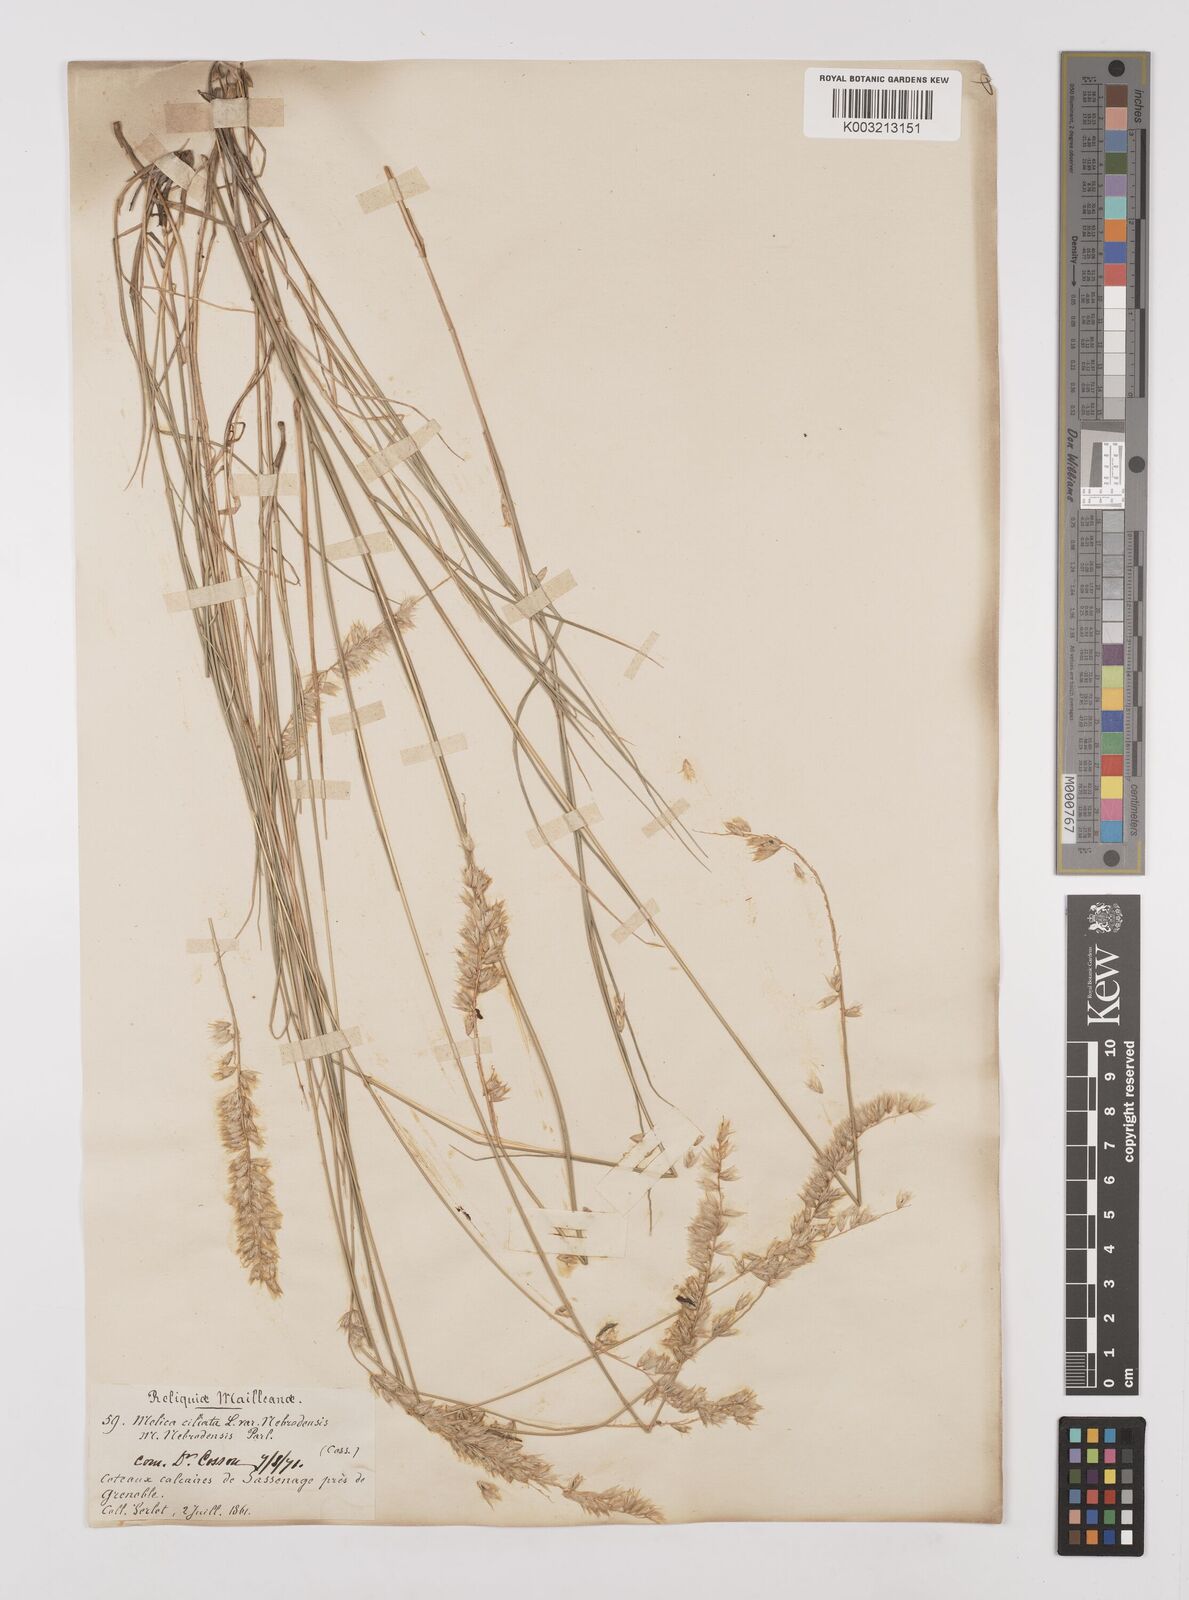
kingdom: Plantae
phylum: Tracheophyta
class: Liliopsida
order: Poales
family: Poaceae
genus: Melica
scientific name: Melica ciliata
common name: Hairy melicgrass
